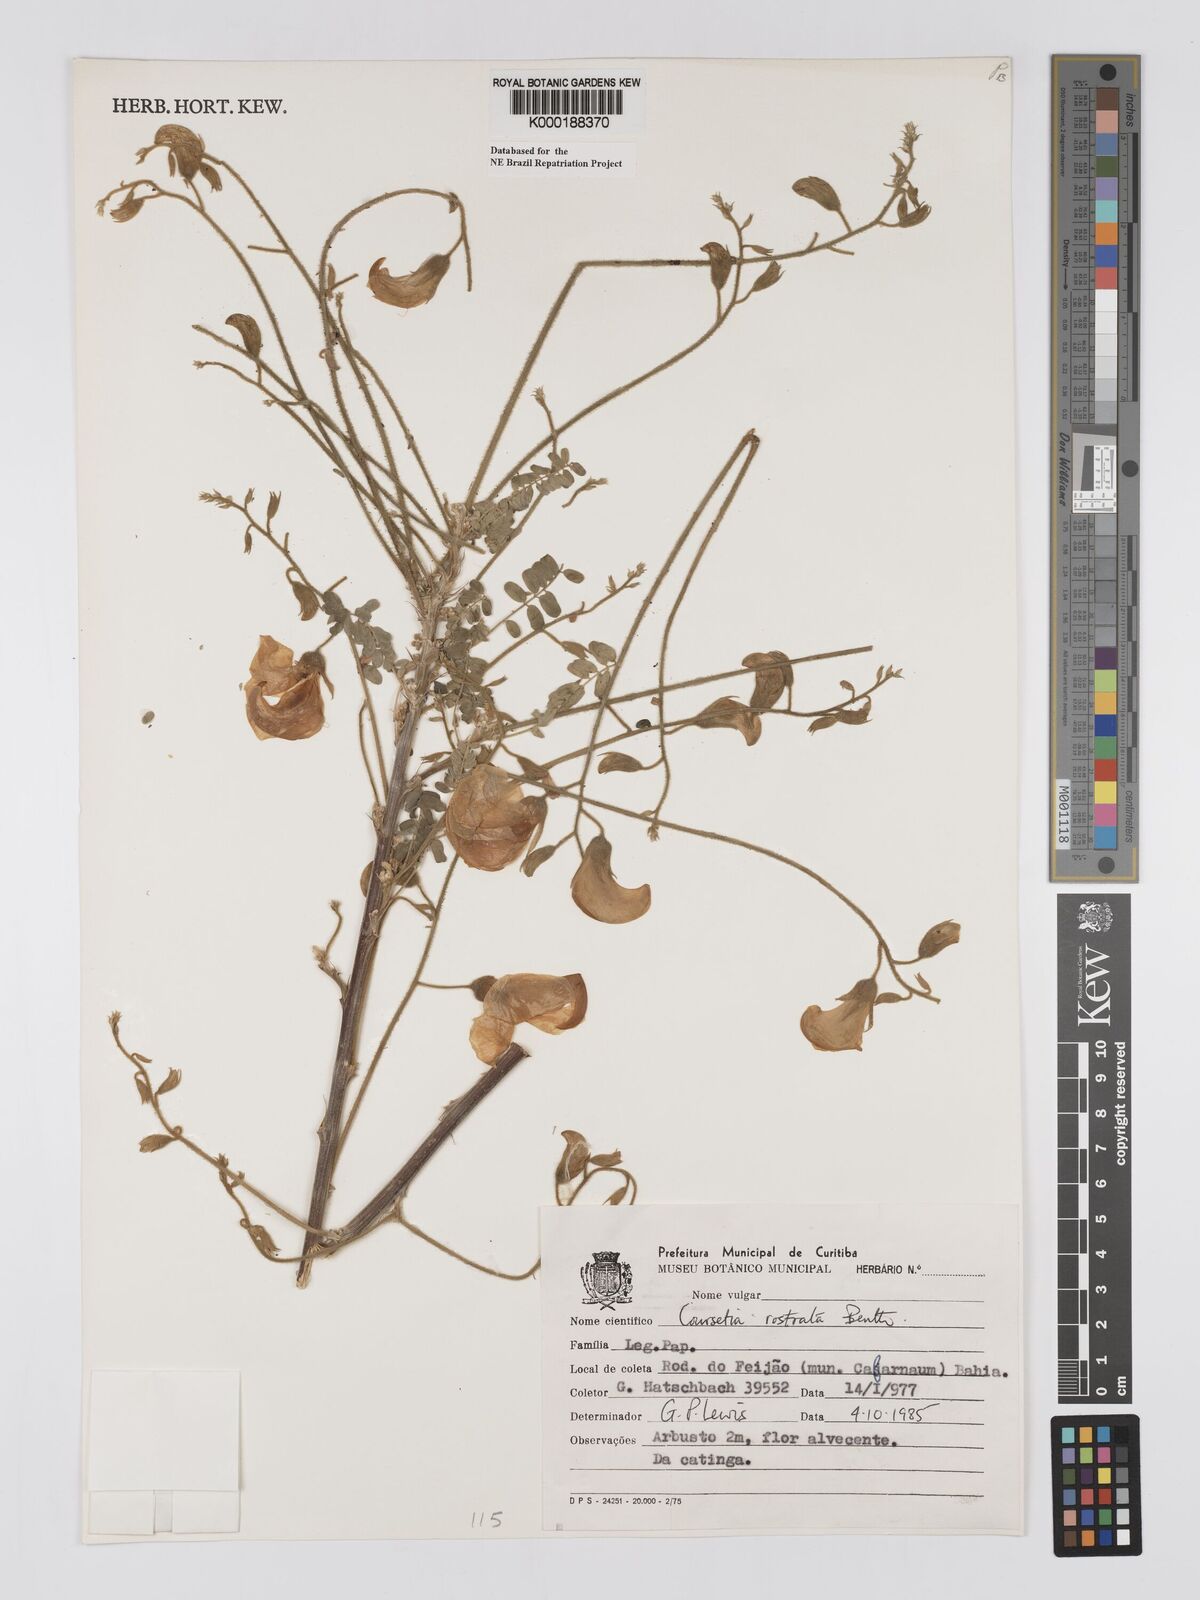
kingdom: Plantae
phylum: Tracheophyta
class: Magnoliopsida
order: Fabales
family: Fabaceae
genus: Coursetia
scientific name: Coursetia rostrata
